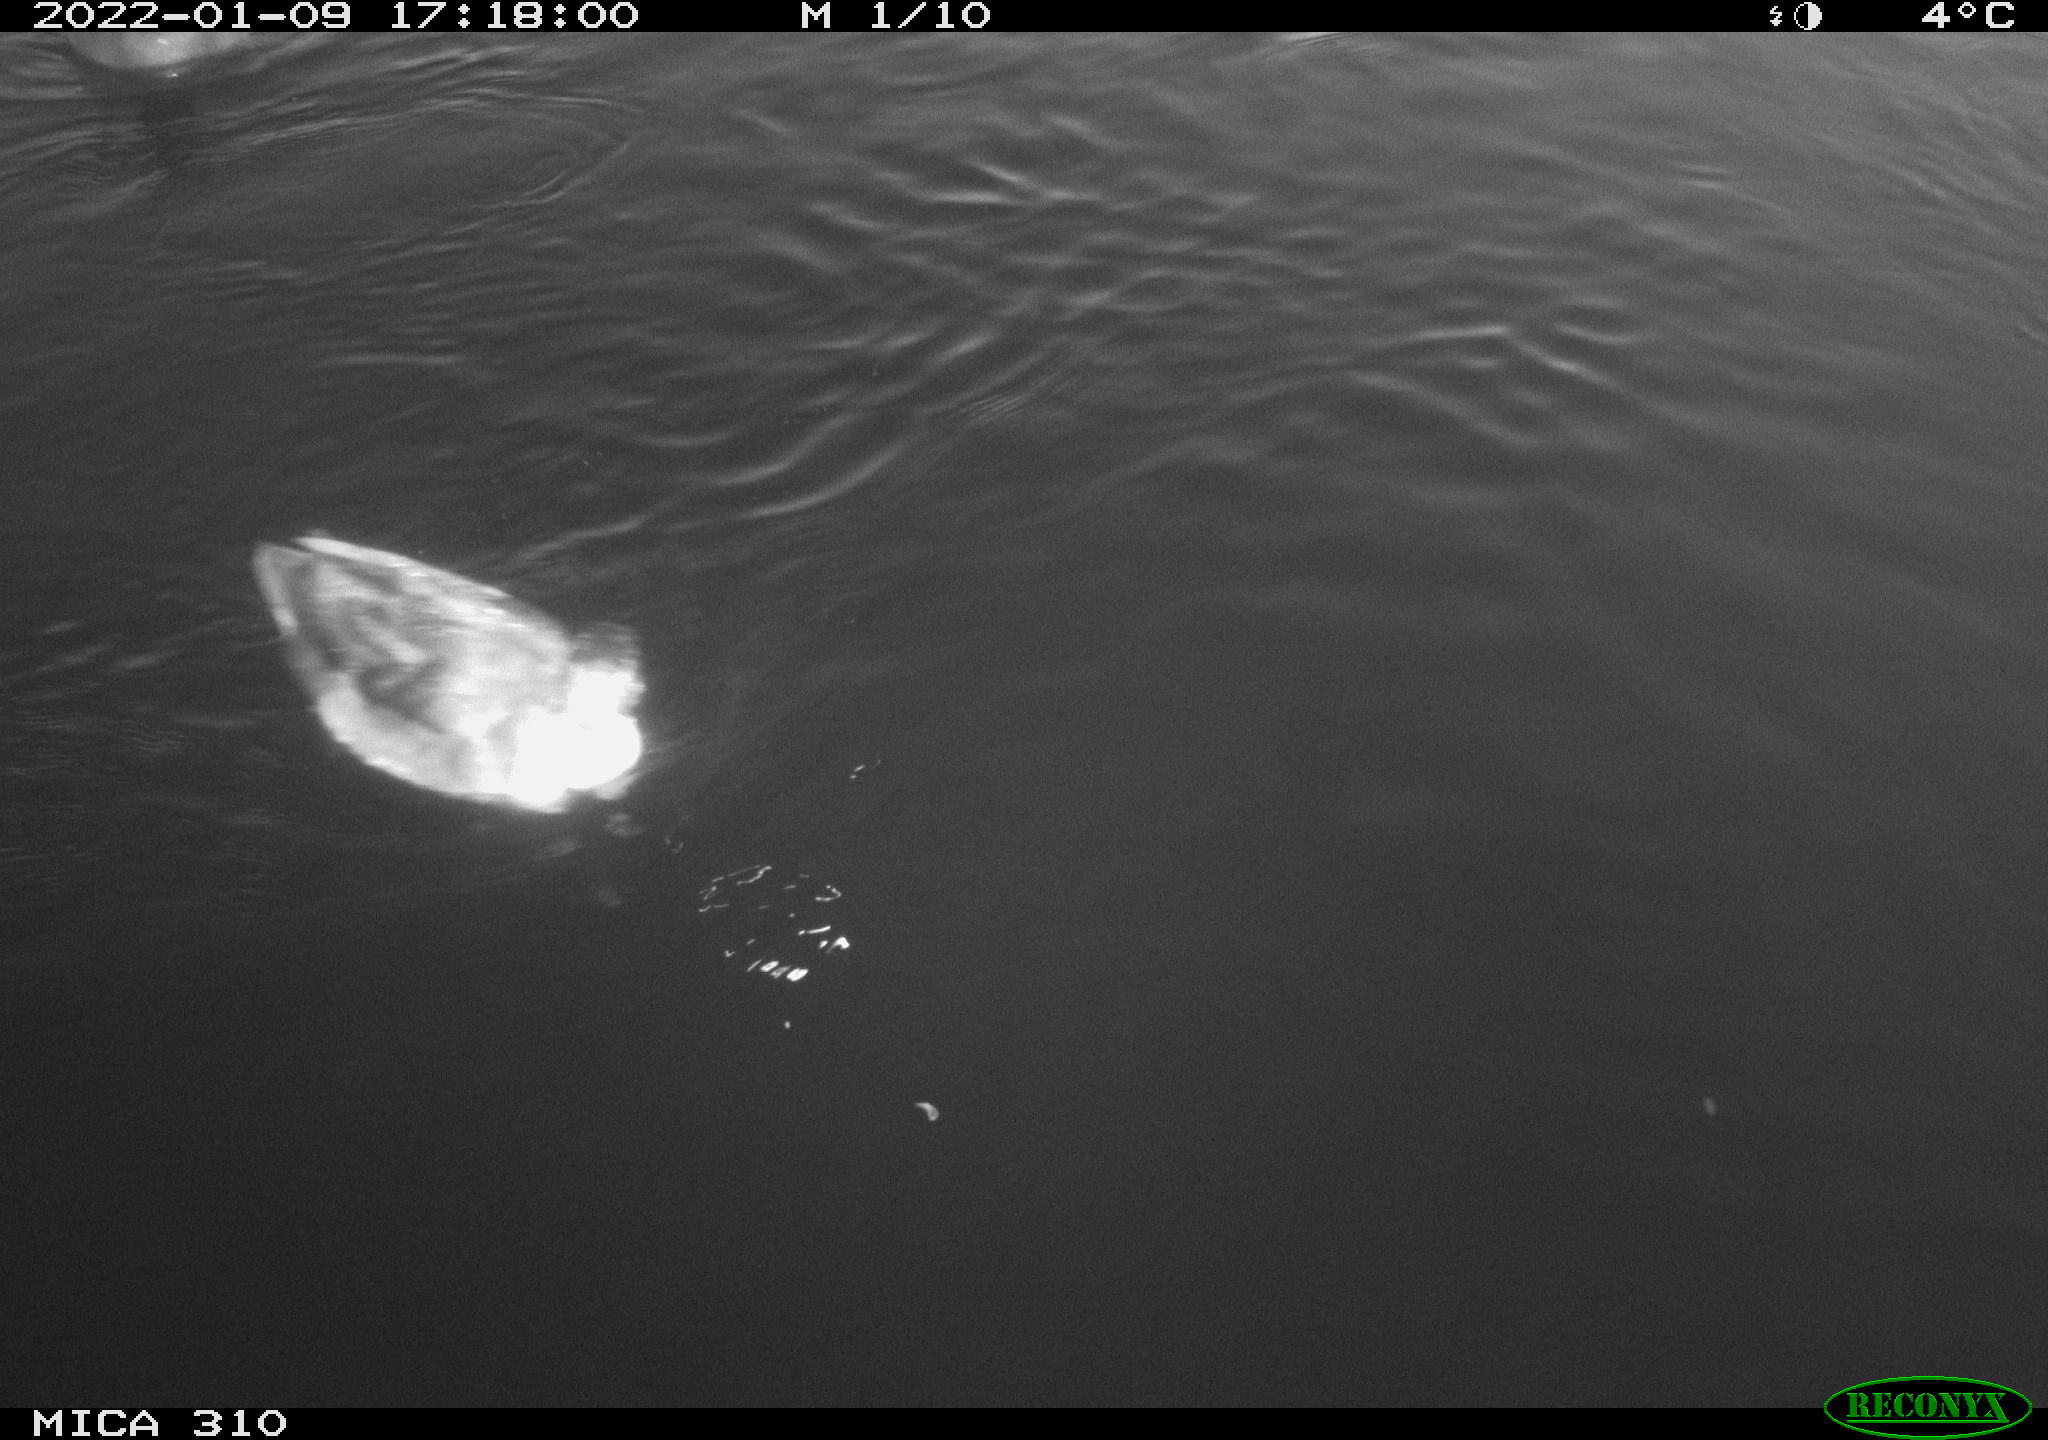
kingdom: Animalia
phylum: Chordata
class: Aves
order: Anseriformes
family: Anatidae
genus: Anas
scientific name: Anas
